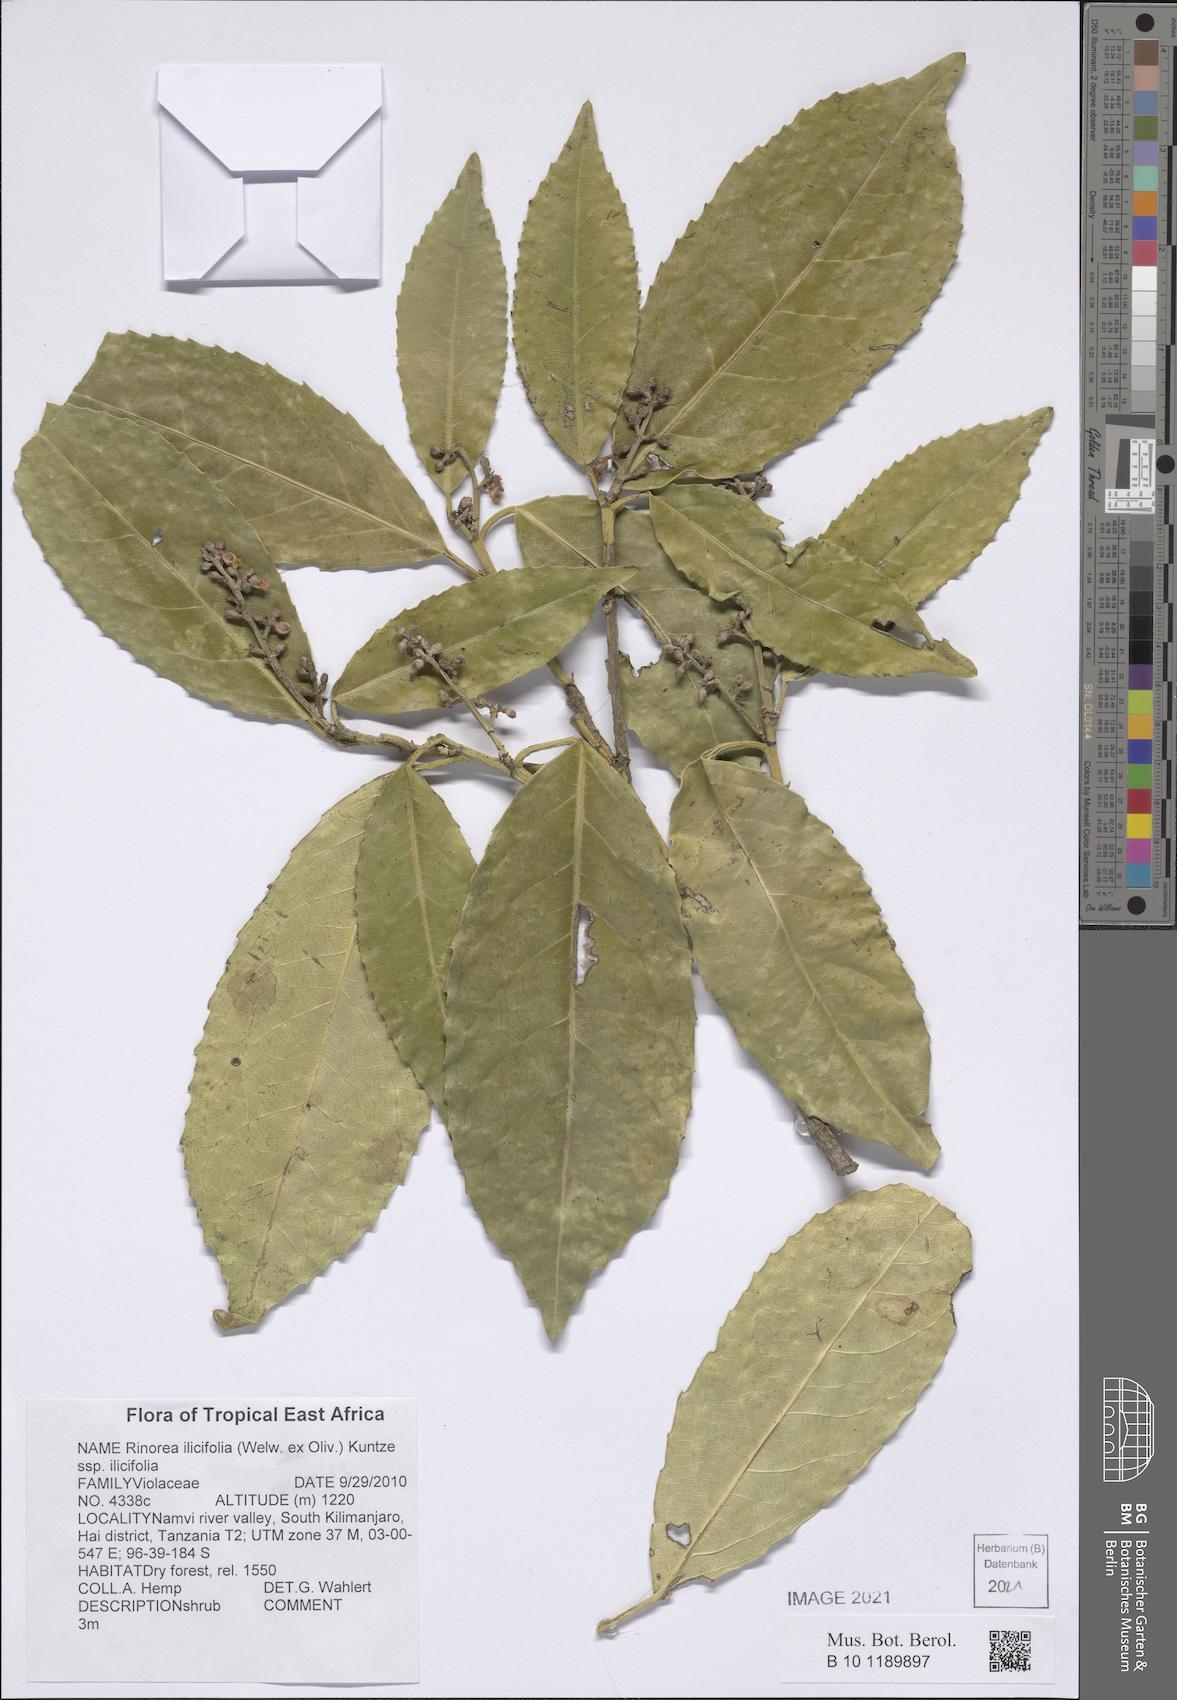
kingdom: Plantae
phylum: Tracheophyta
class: Magnoliopsida
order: Malpighiales
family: Violaceae
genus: Rinorea
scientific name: Rinorea ilicifolia
